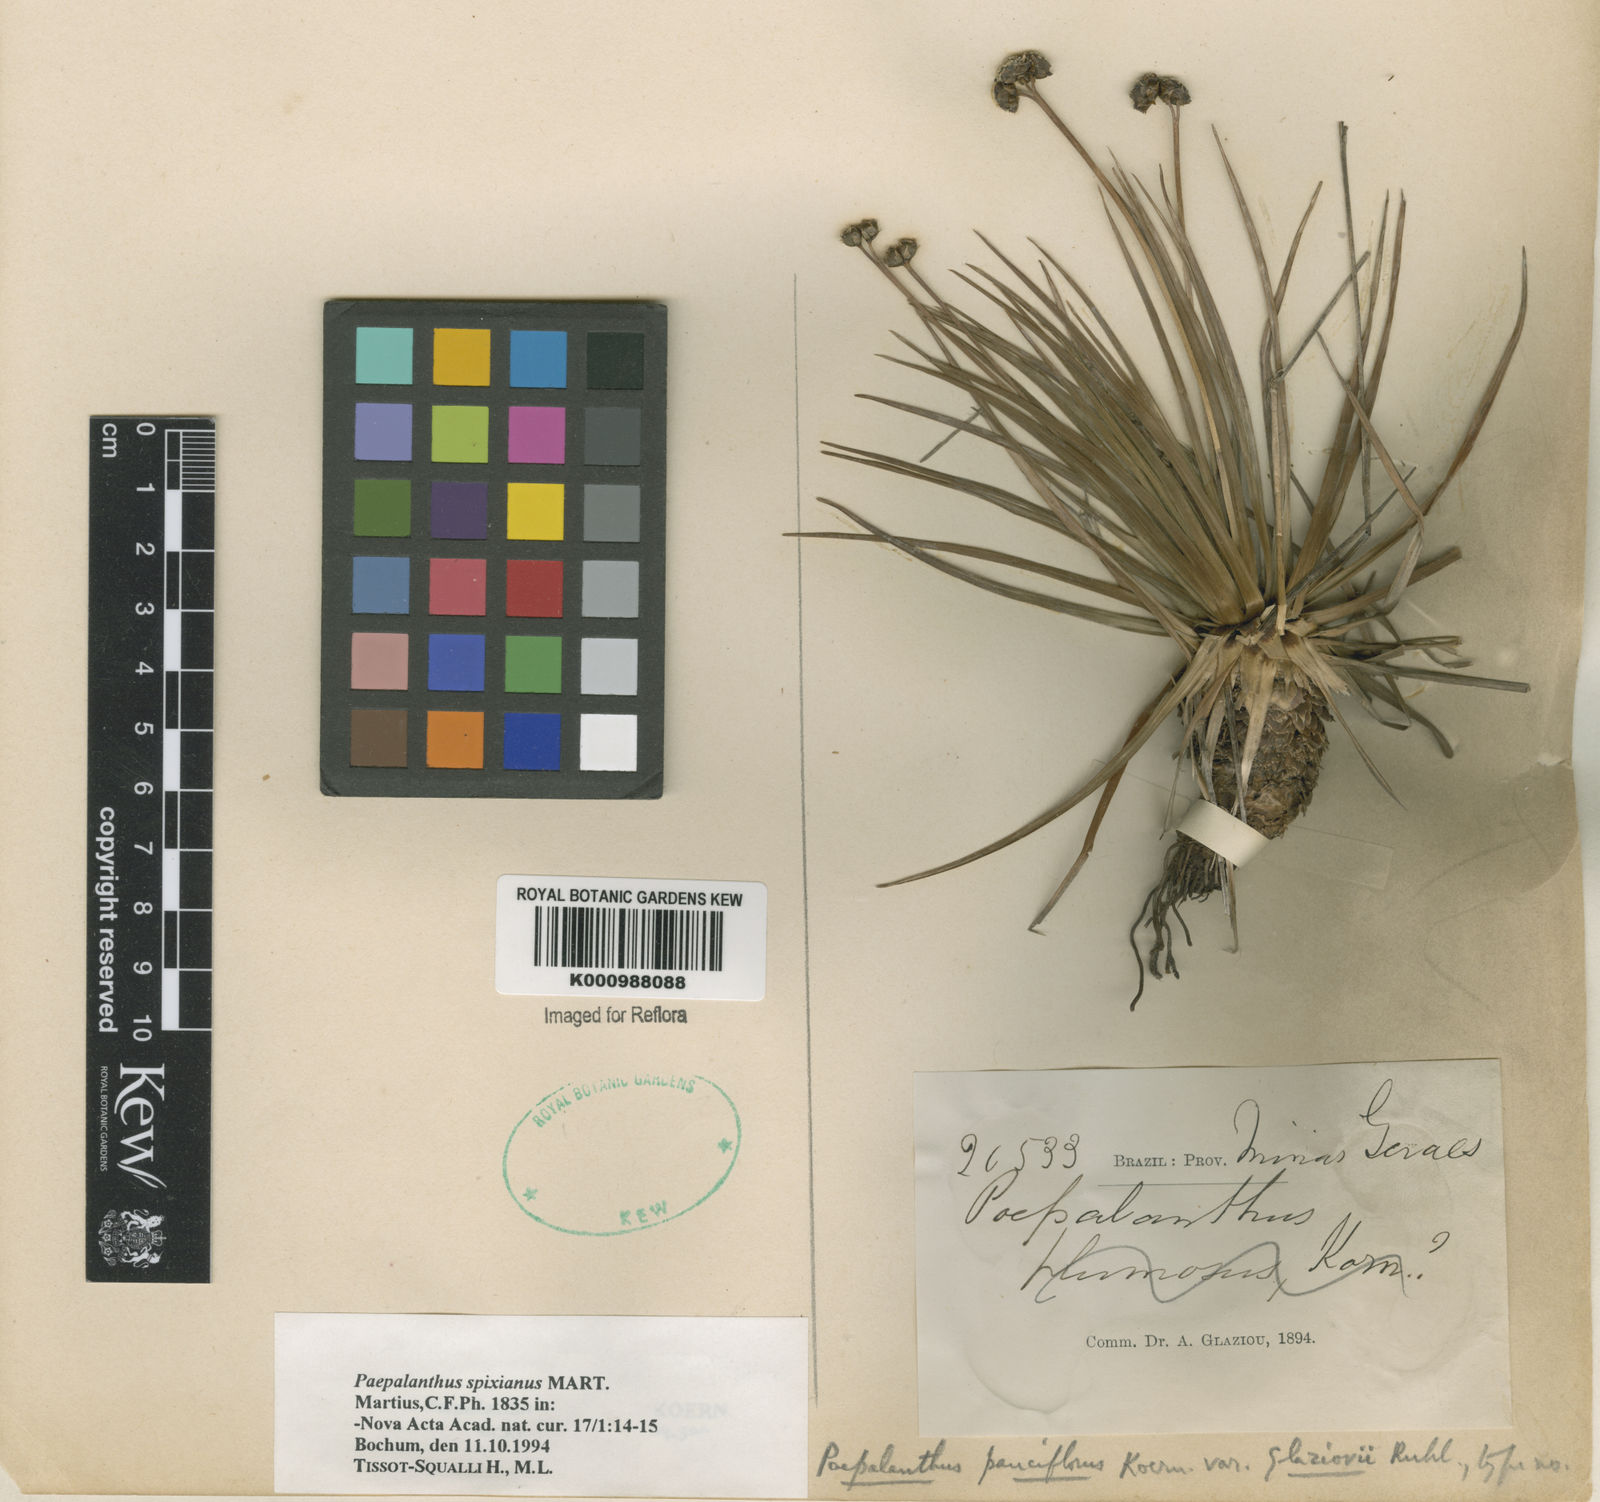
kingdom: Plantae
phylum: Tracheophyta
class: Liliopsida
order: Poales
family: Eriocaulaceae
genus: Paepalanthus
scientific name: Paepalanthus spixianus
